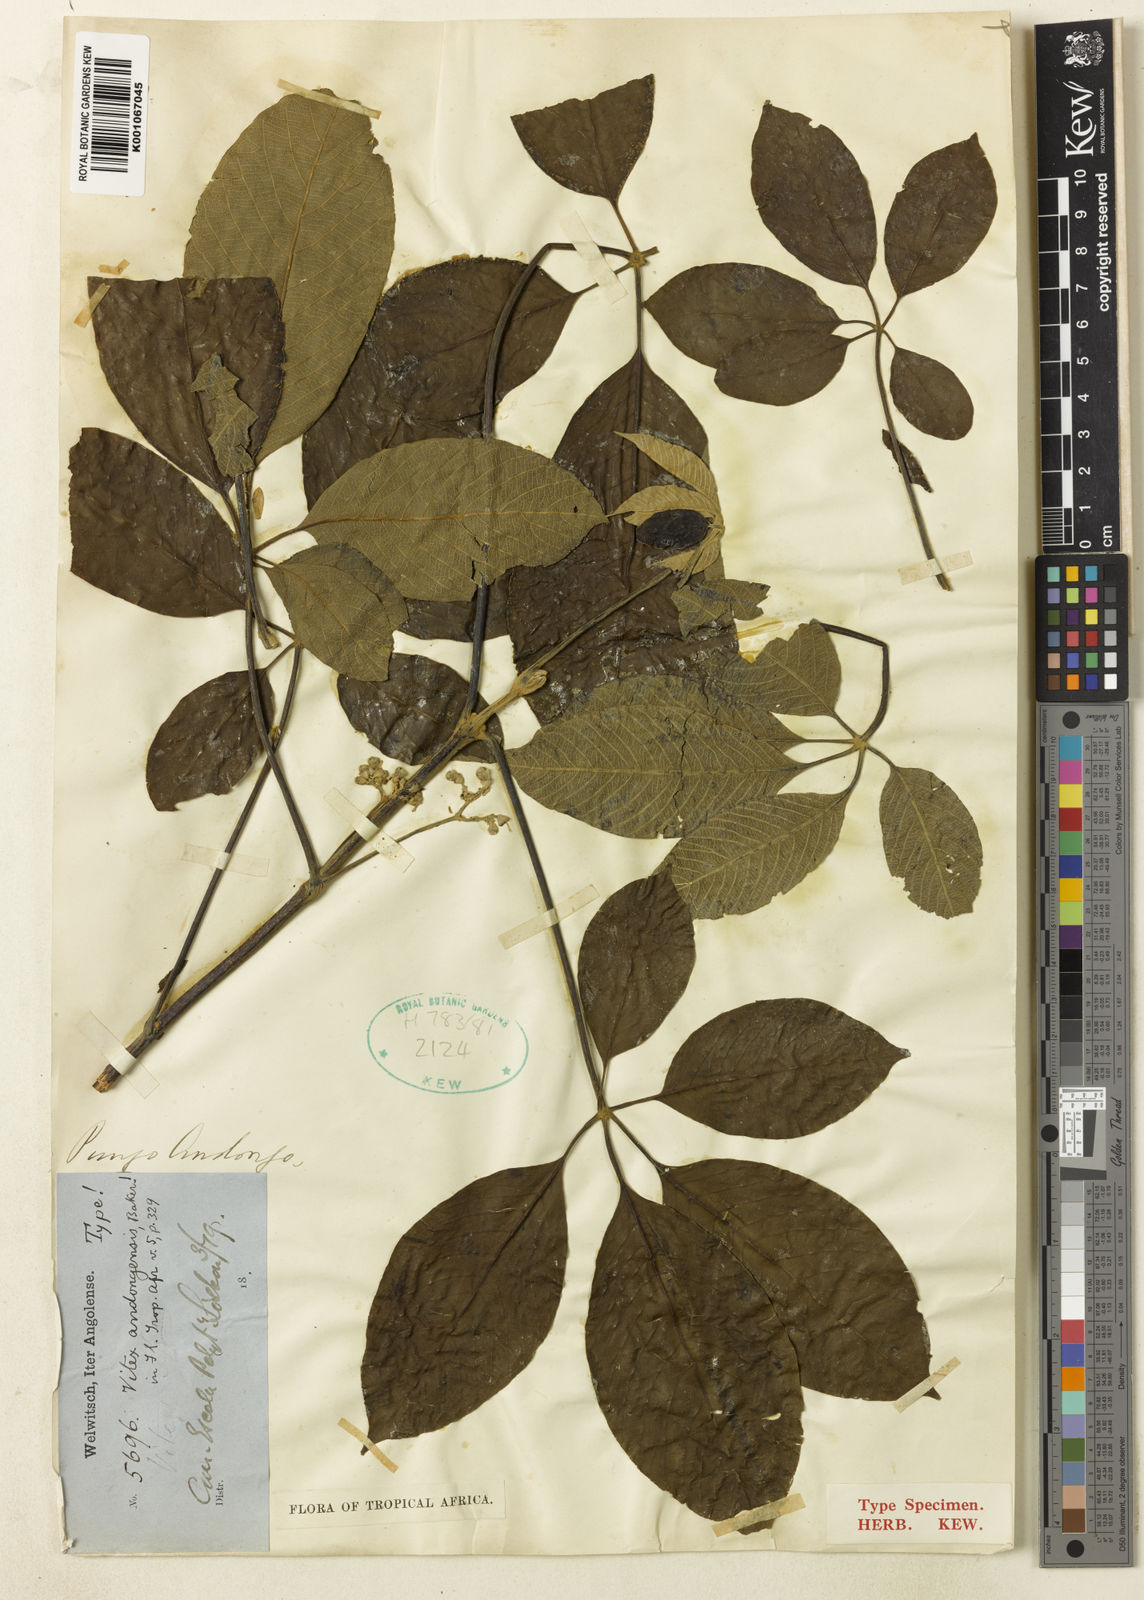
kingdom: Plantae
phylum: Tracheophyta
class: Magnoliopsida
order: Lamiales
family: Lamiaceae
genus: Vitex
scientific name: Vitex
